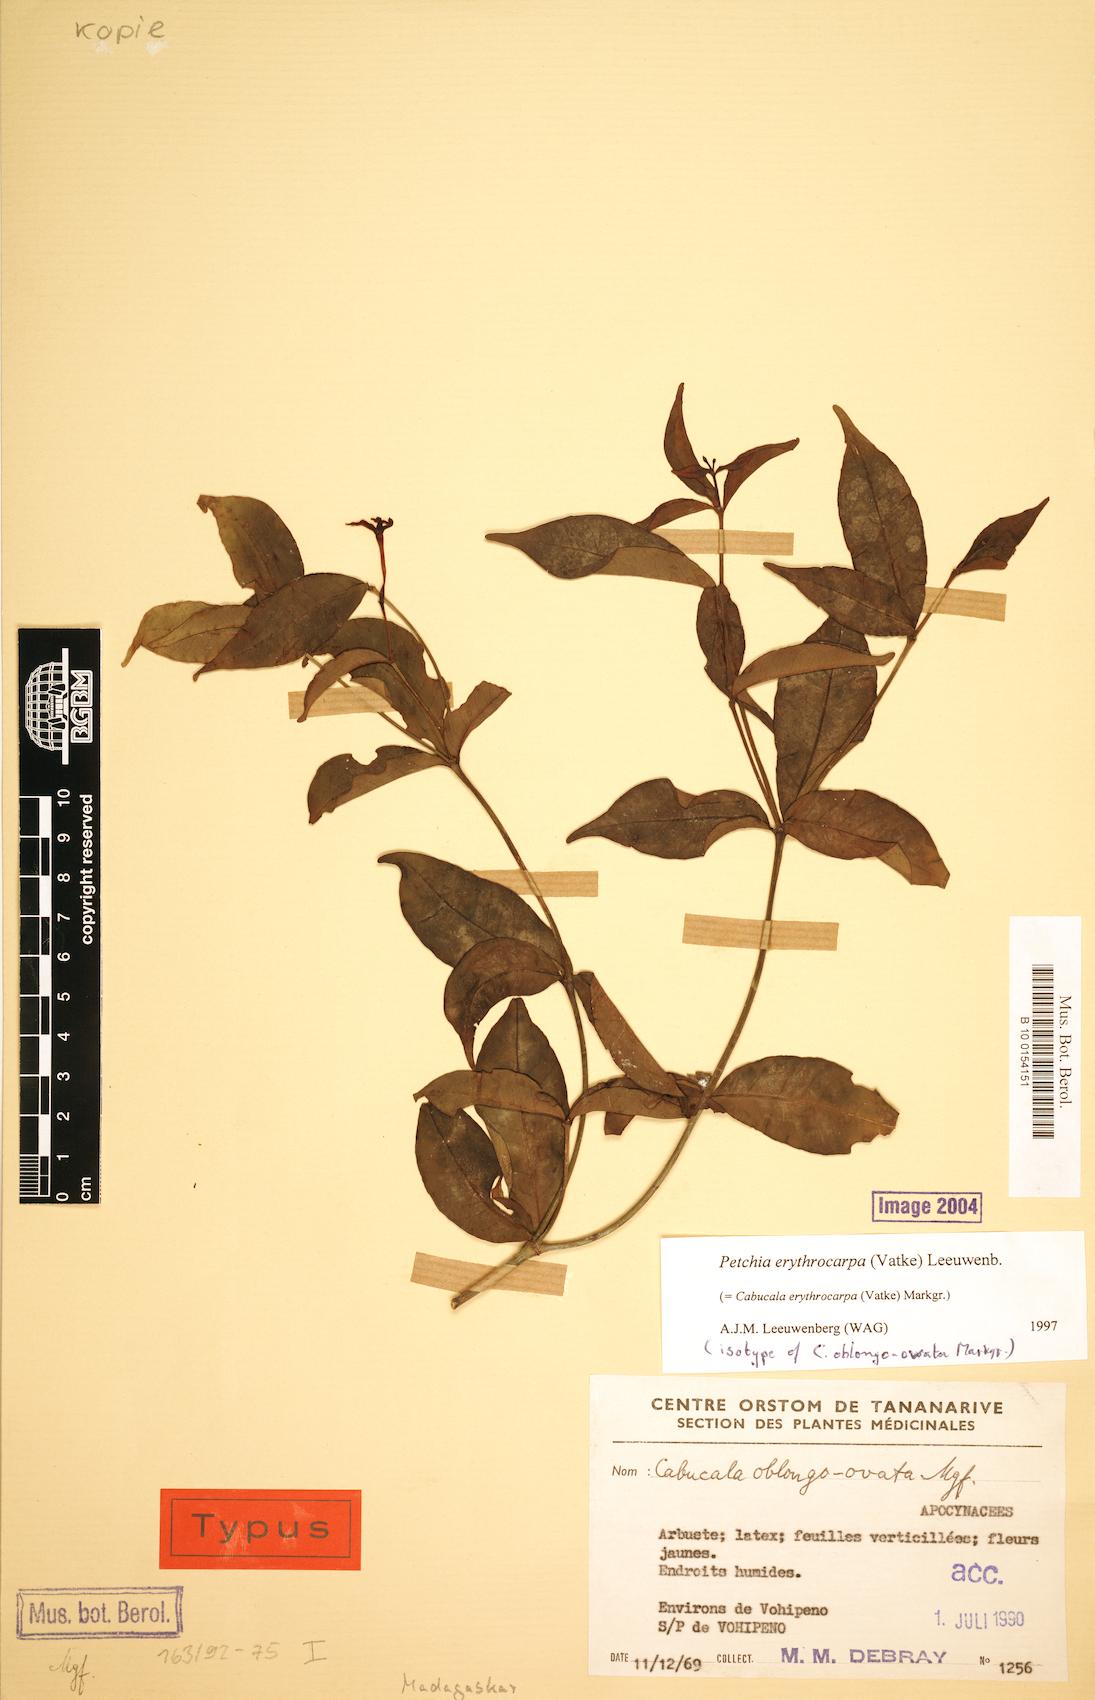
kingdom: Plantae
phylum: Tracheophyta
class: Magnoliopsida
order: Gentianales
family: Apocynaceae
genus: Petchia
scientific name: Petchia erythrocarpa
